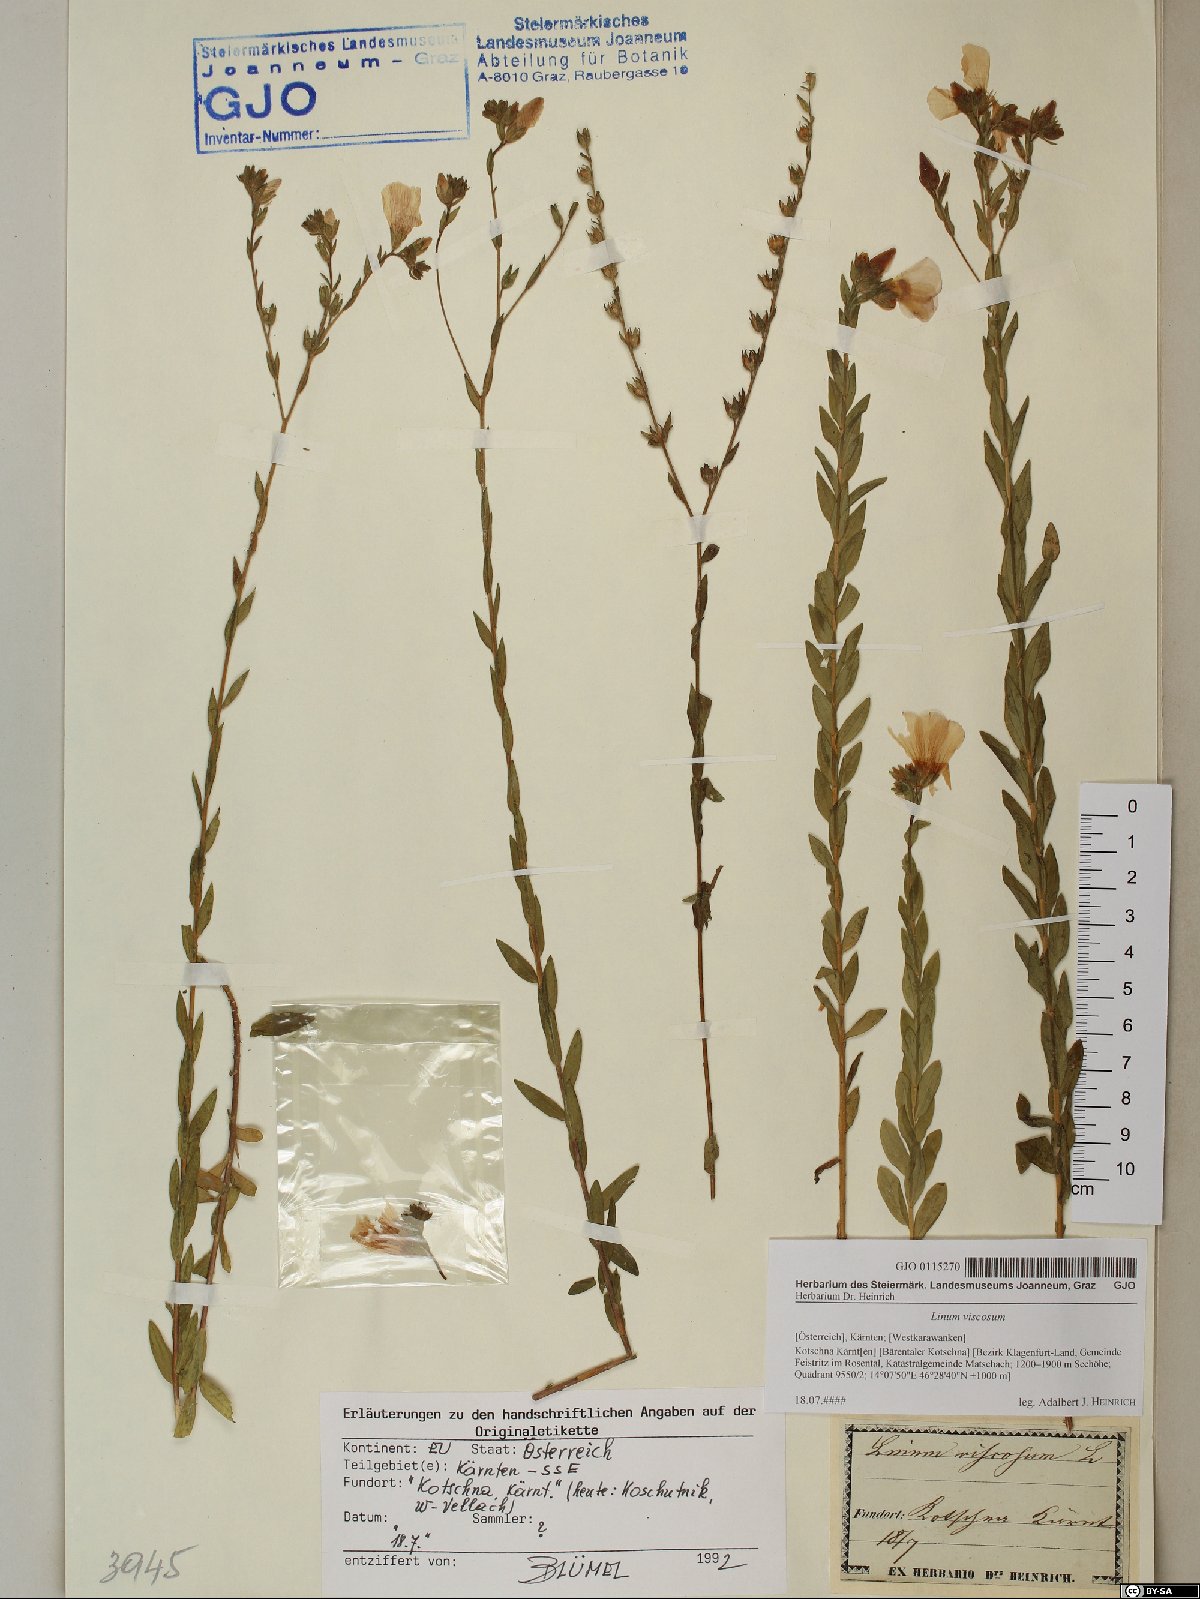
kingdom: Plantae
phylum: Tracheophyta
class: Magnoliopsida
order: Malpighiales
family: Linaceae
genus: Linum
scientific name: Linum viscosum
